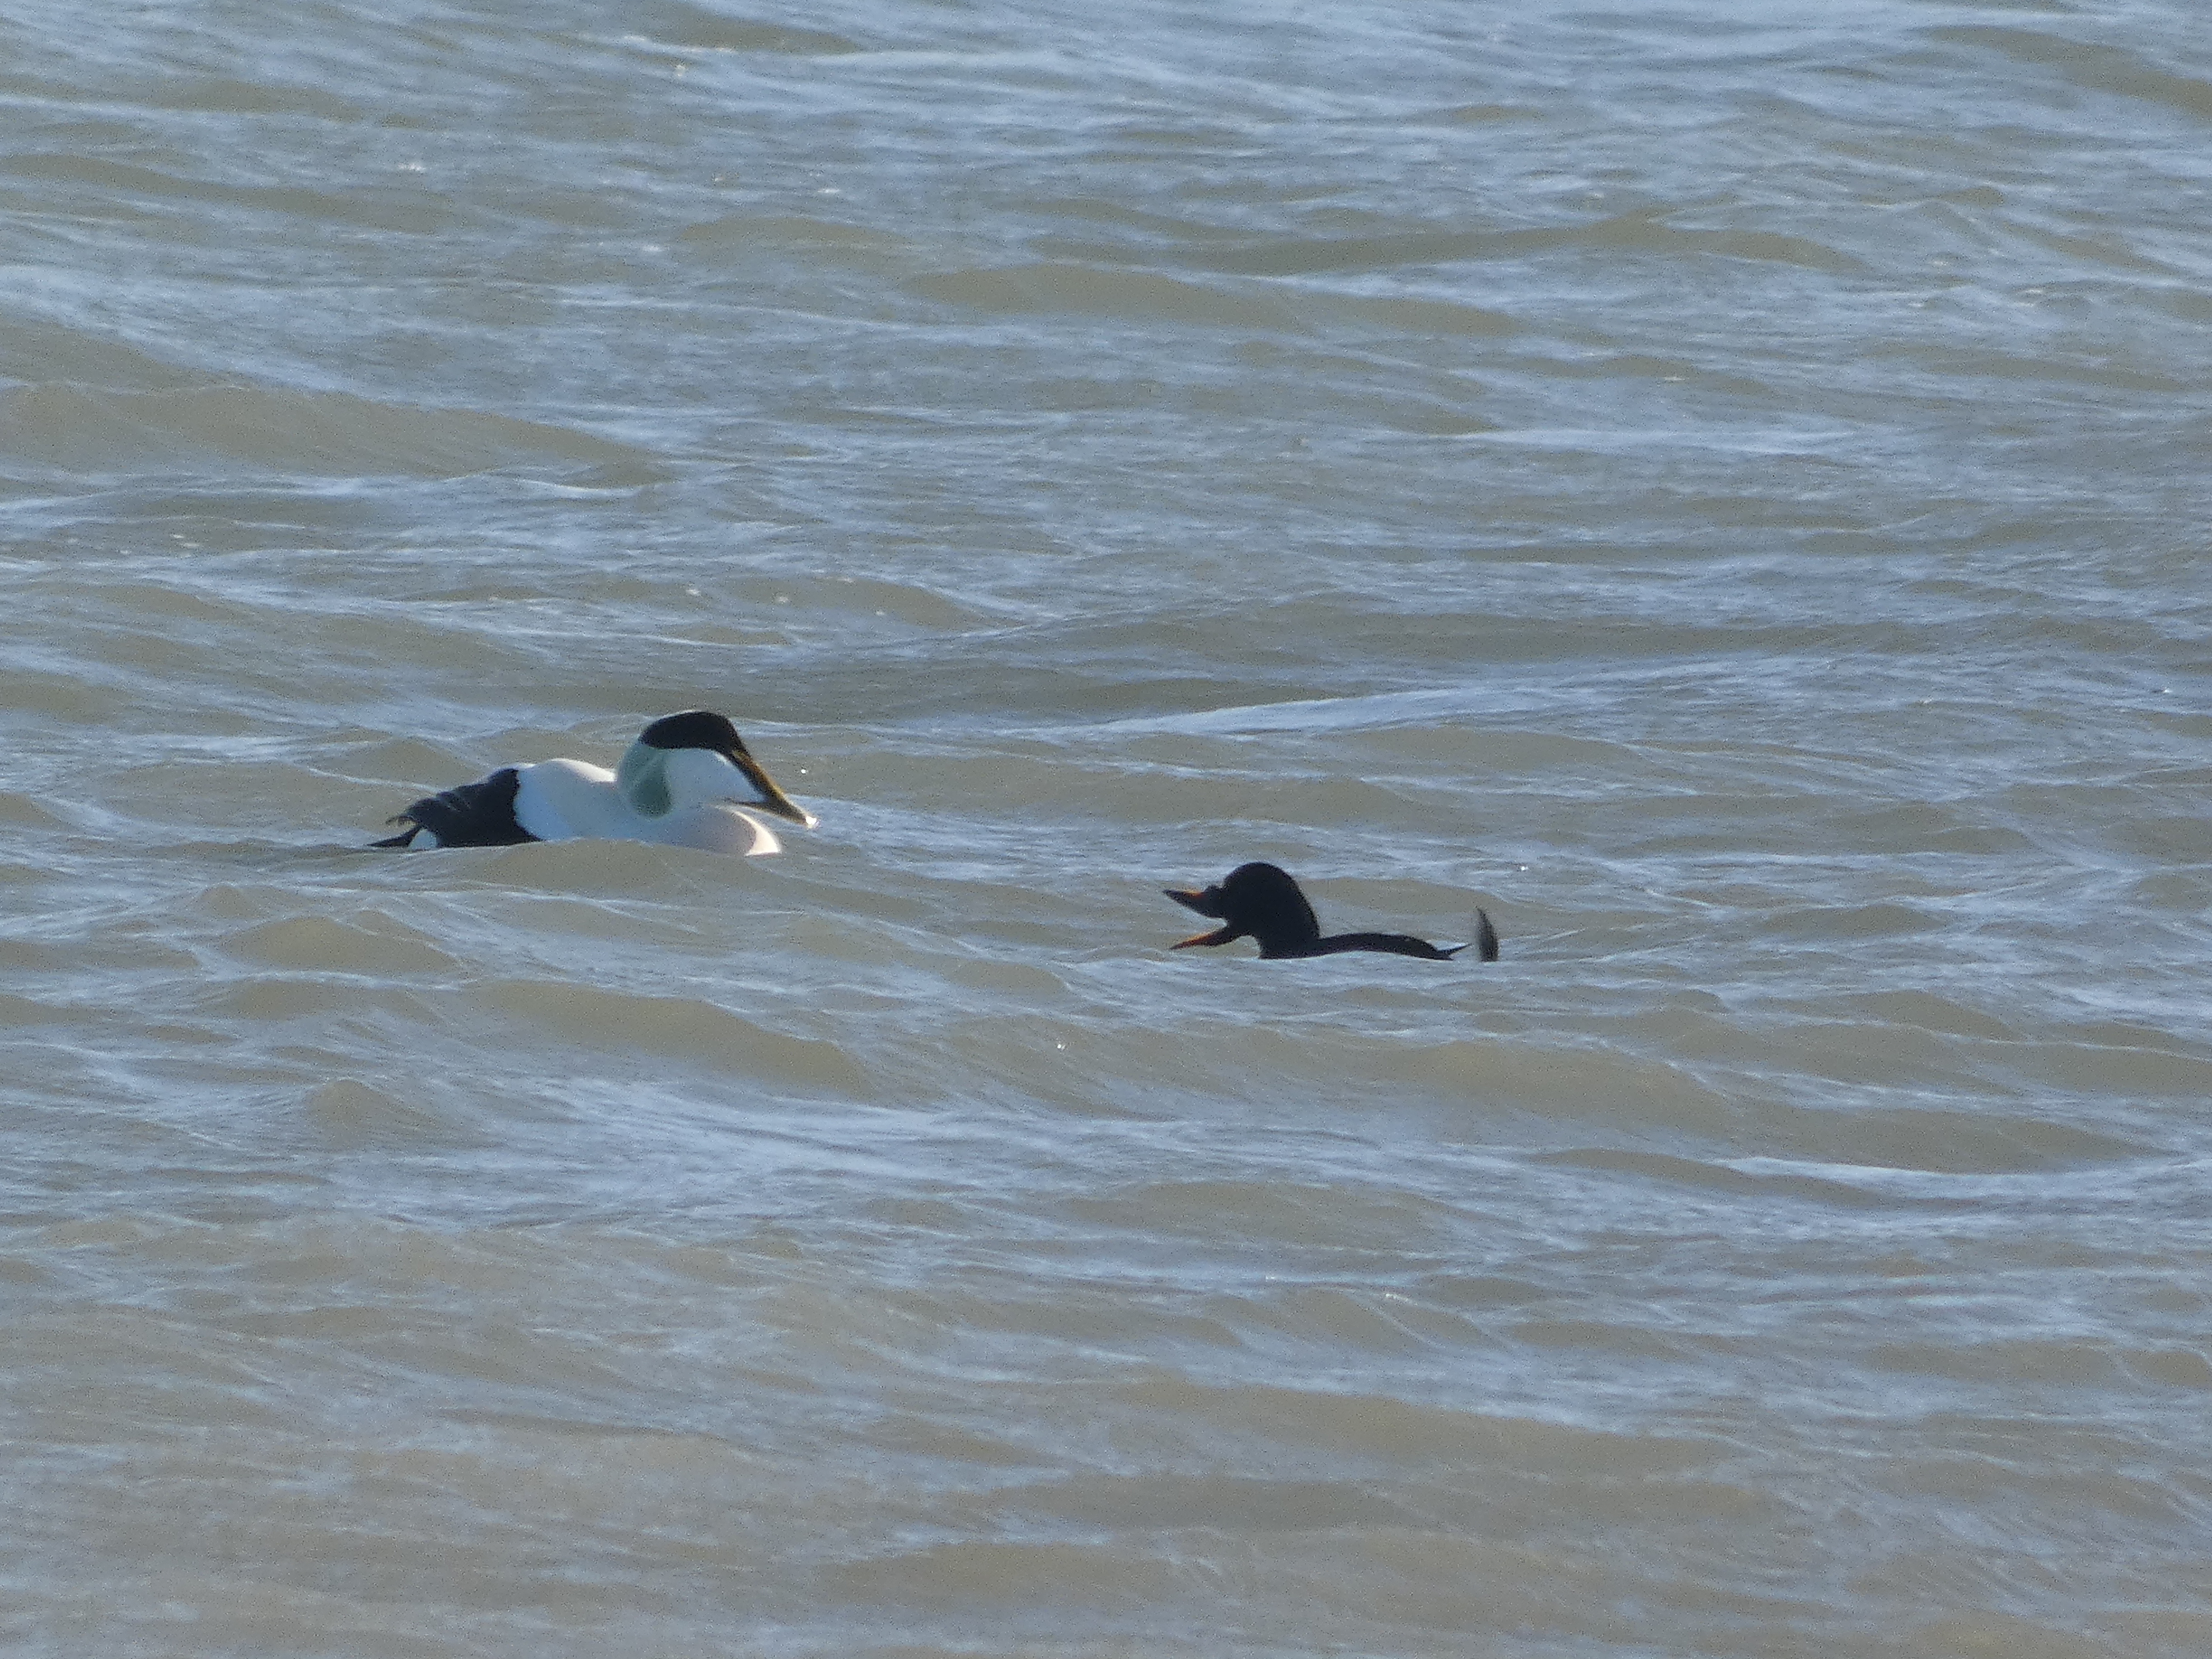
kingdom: Animalia
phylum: Chordata
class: Aves
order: Anseriformes
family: Anatidae
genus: Somateria
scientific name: Somateria mollissima
